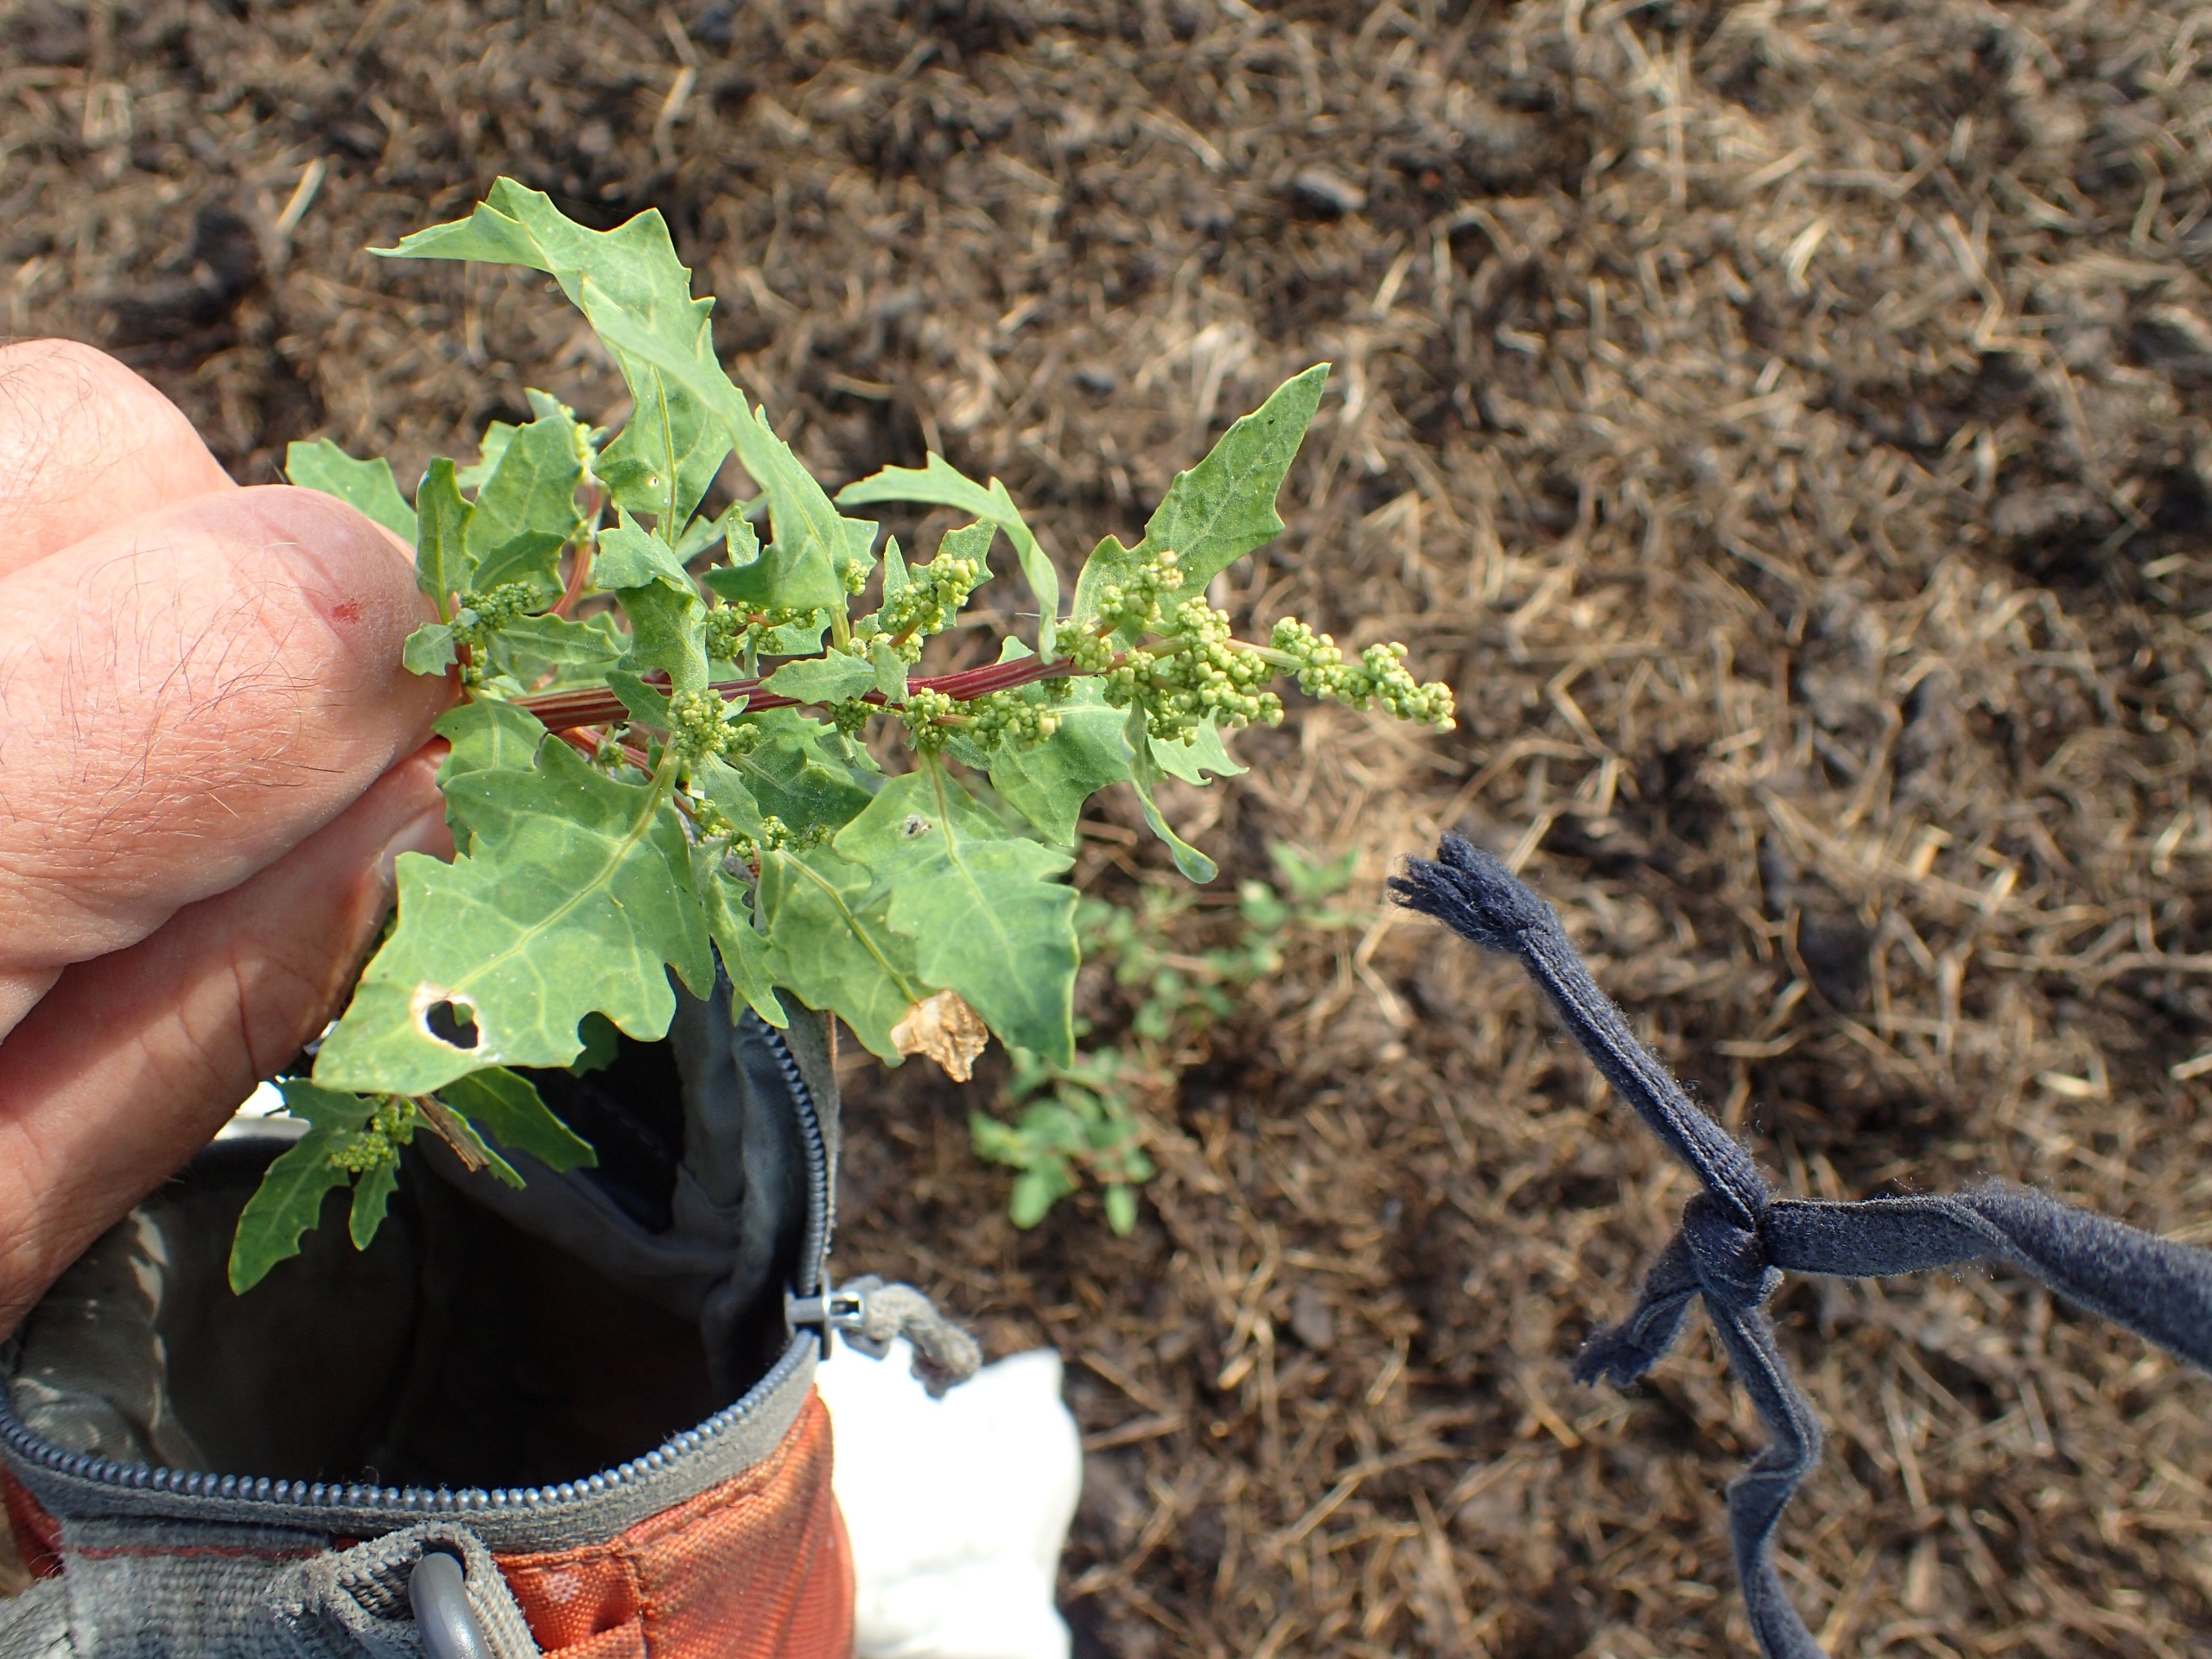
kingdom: Plantae
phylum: Tracheophyta
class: Magnoliopsida
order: Caryophyllales
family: Amaranthaceae
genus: Oxybasis
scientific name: Oxybasis glauca
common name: Blågrøn gåsefod
